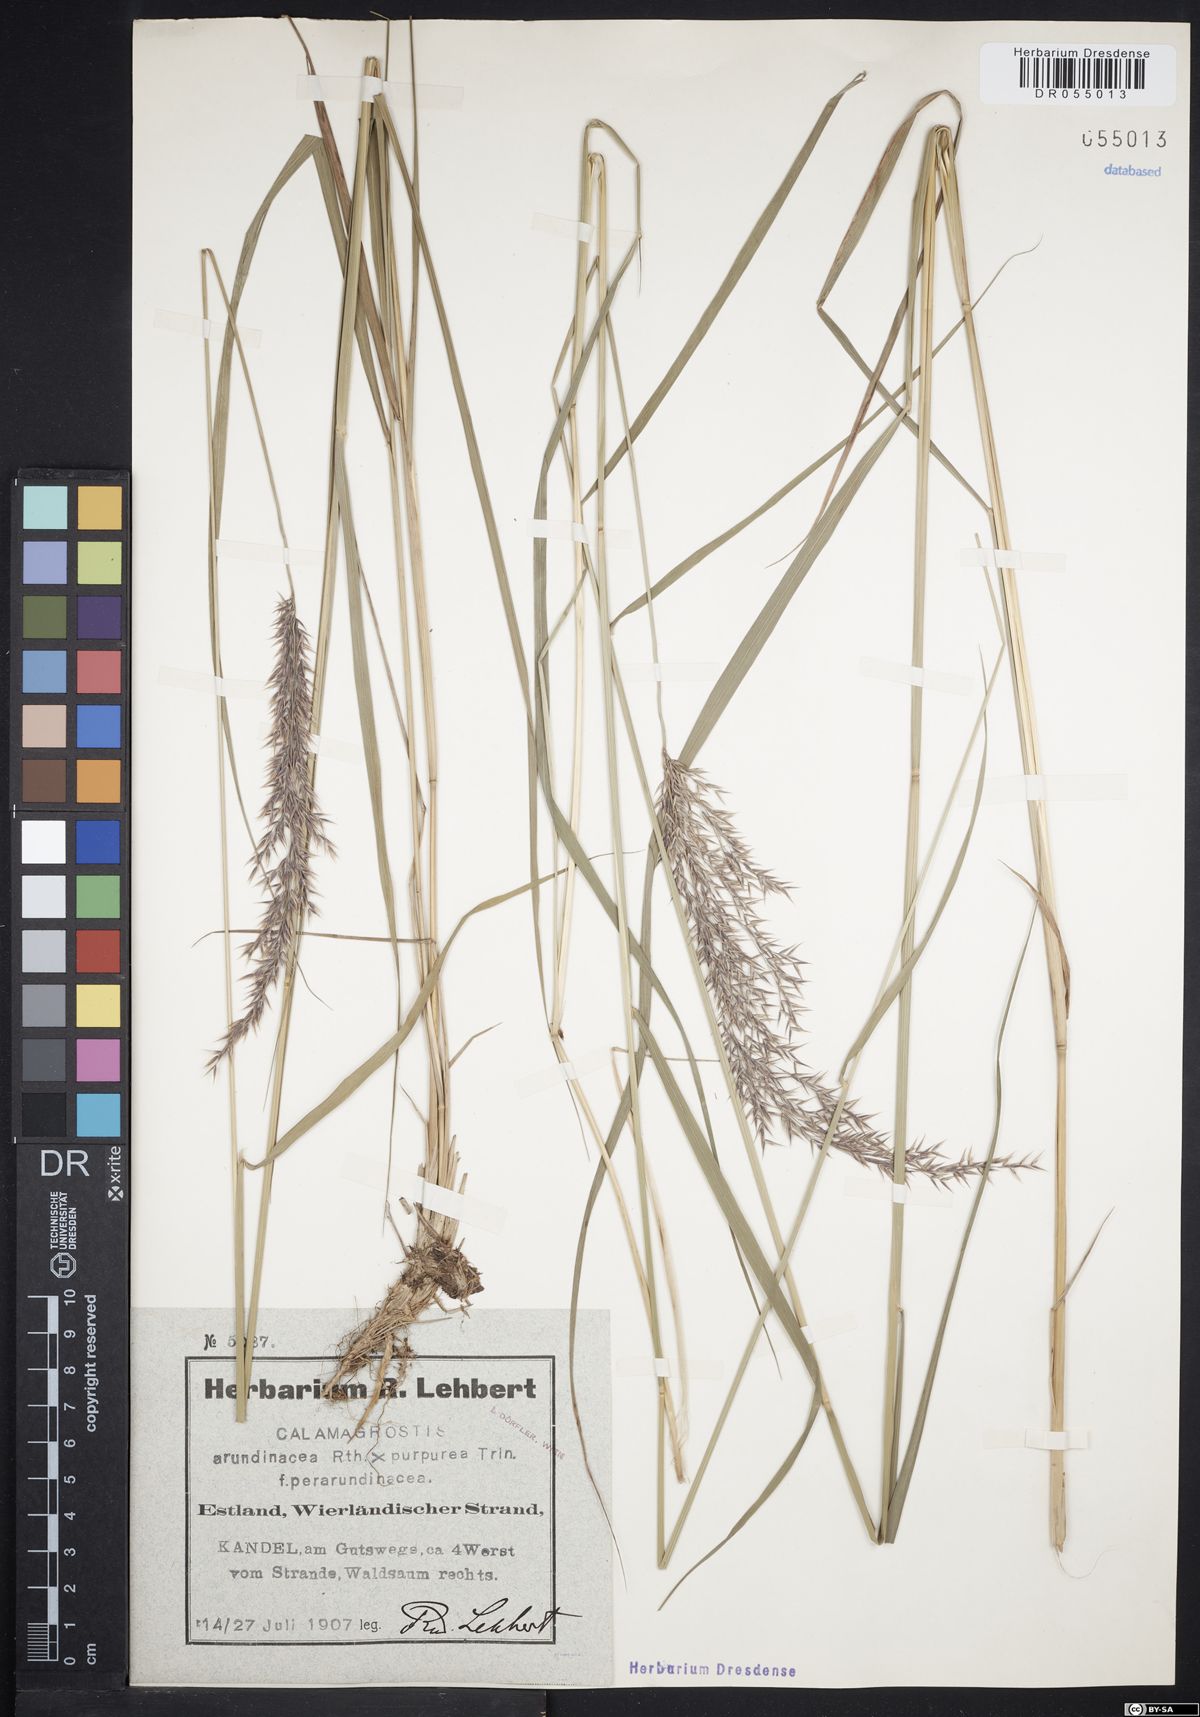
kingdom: Plantae
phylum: Tracheophyta
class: Liliopsida
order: Poales
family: Poaceae
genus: Calamagrostis
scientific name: Calamagrostis hartmaniana
